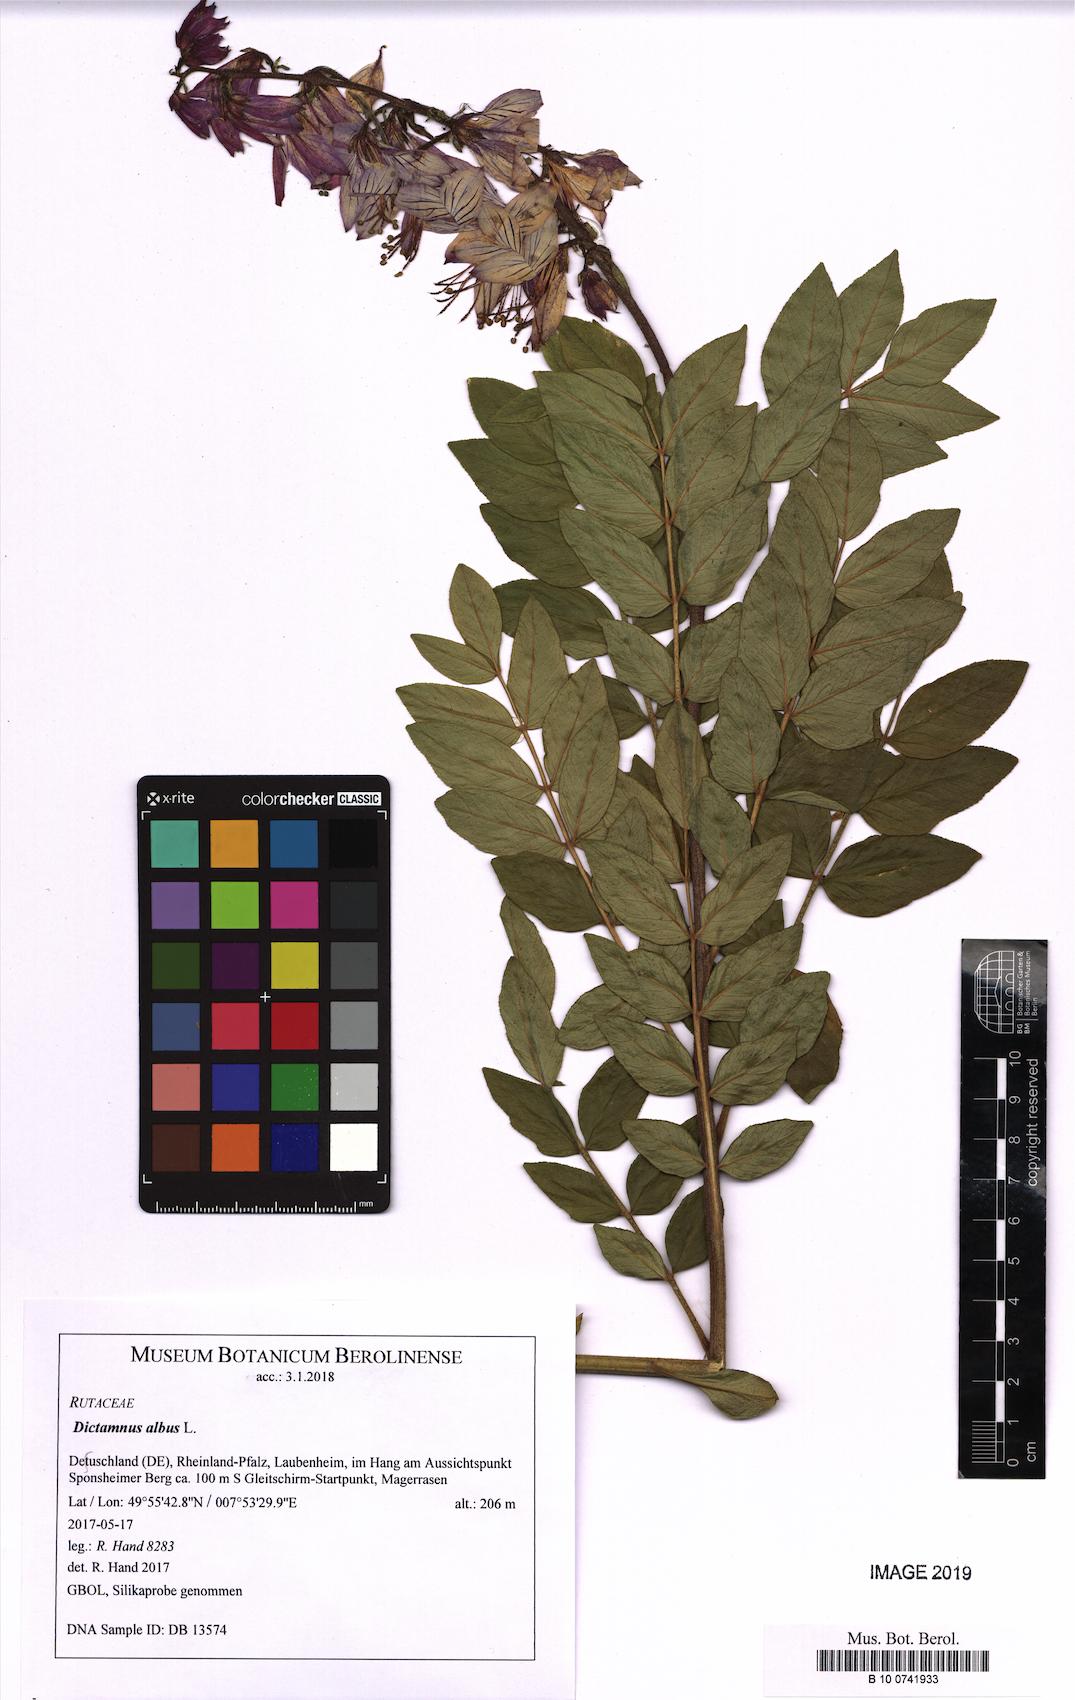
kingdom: Plantae
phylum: Tracheophyta
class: Magnoliopsida
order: Sapindales
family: Rutaceae
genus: Dictamnus
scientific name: Dictamnus albus
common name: Gasplant
